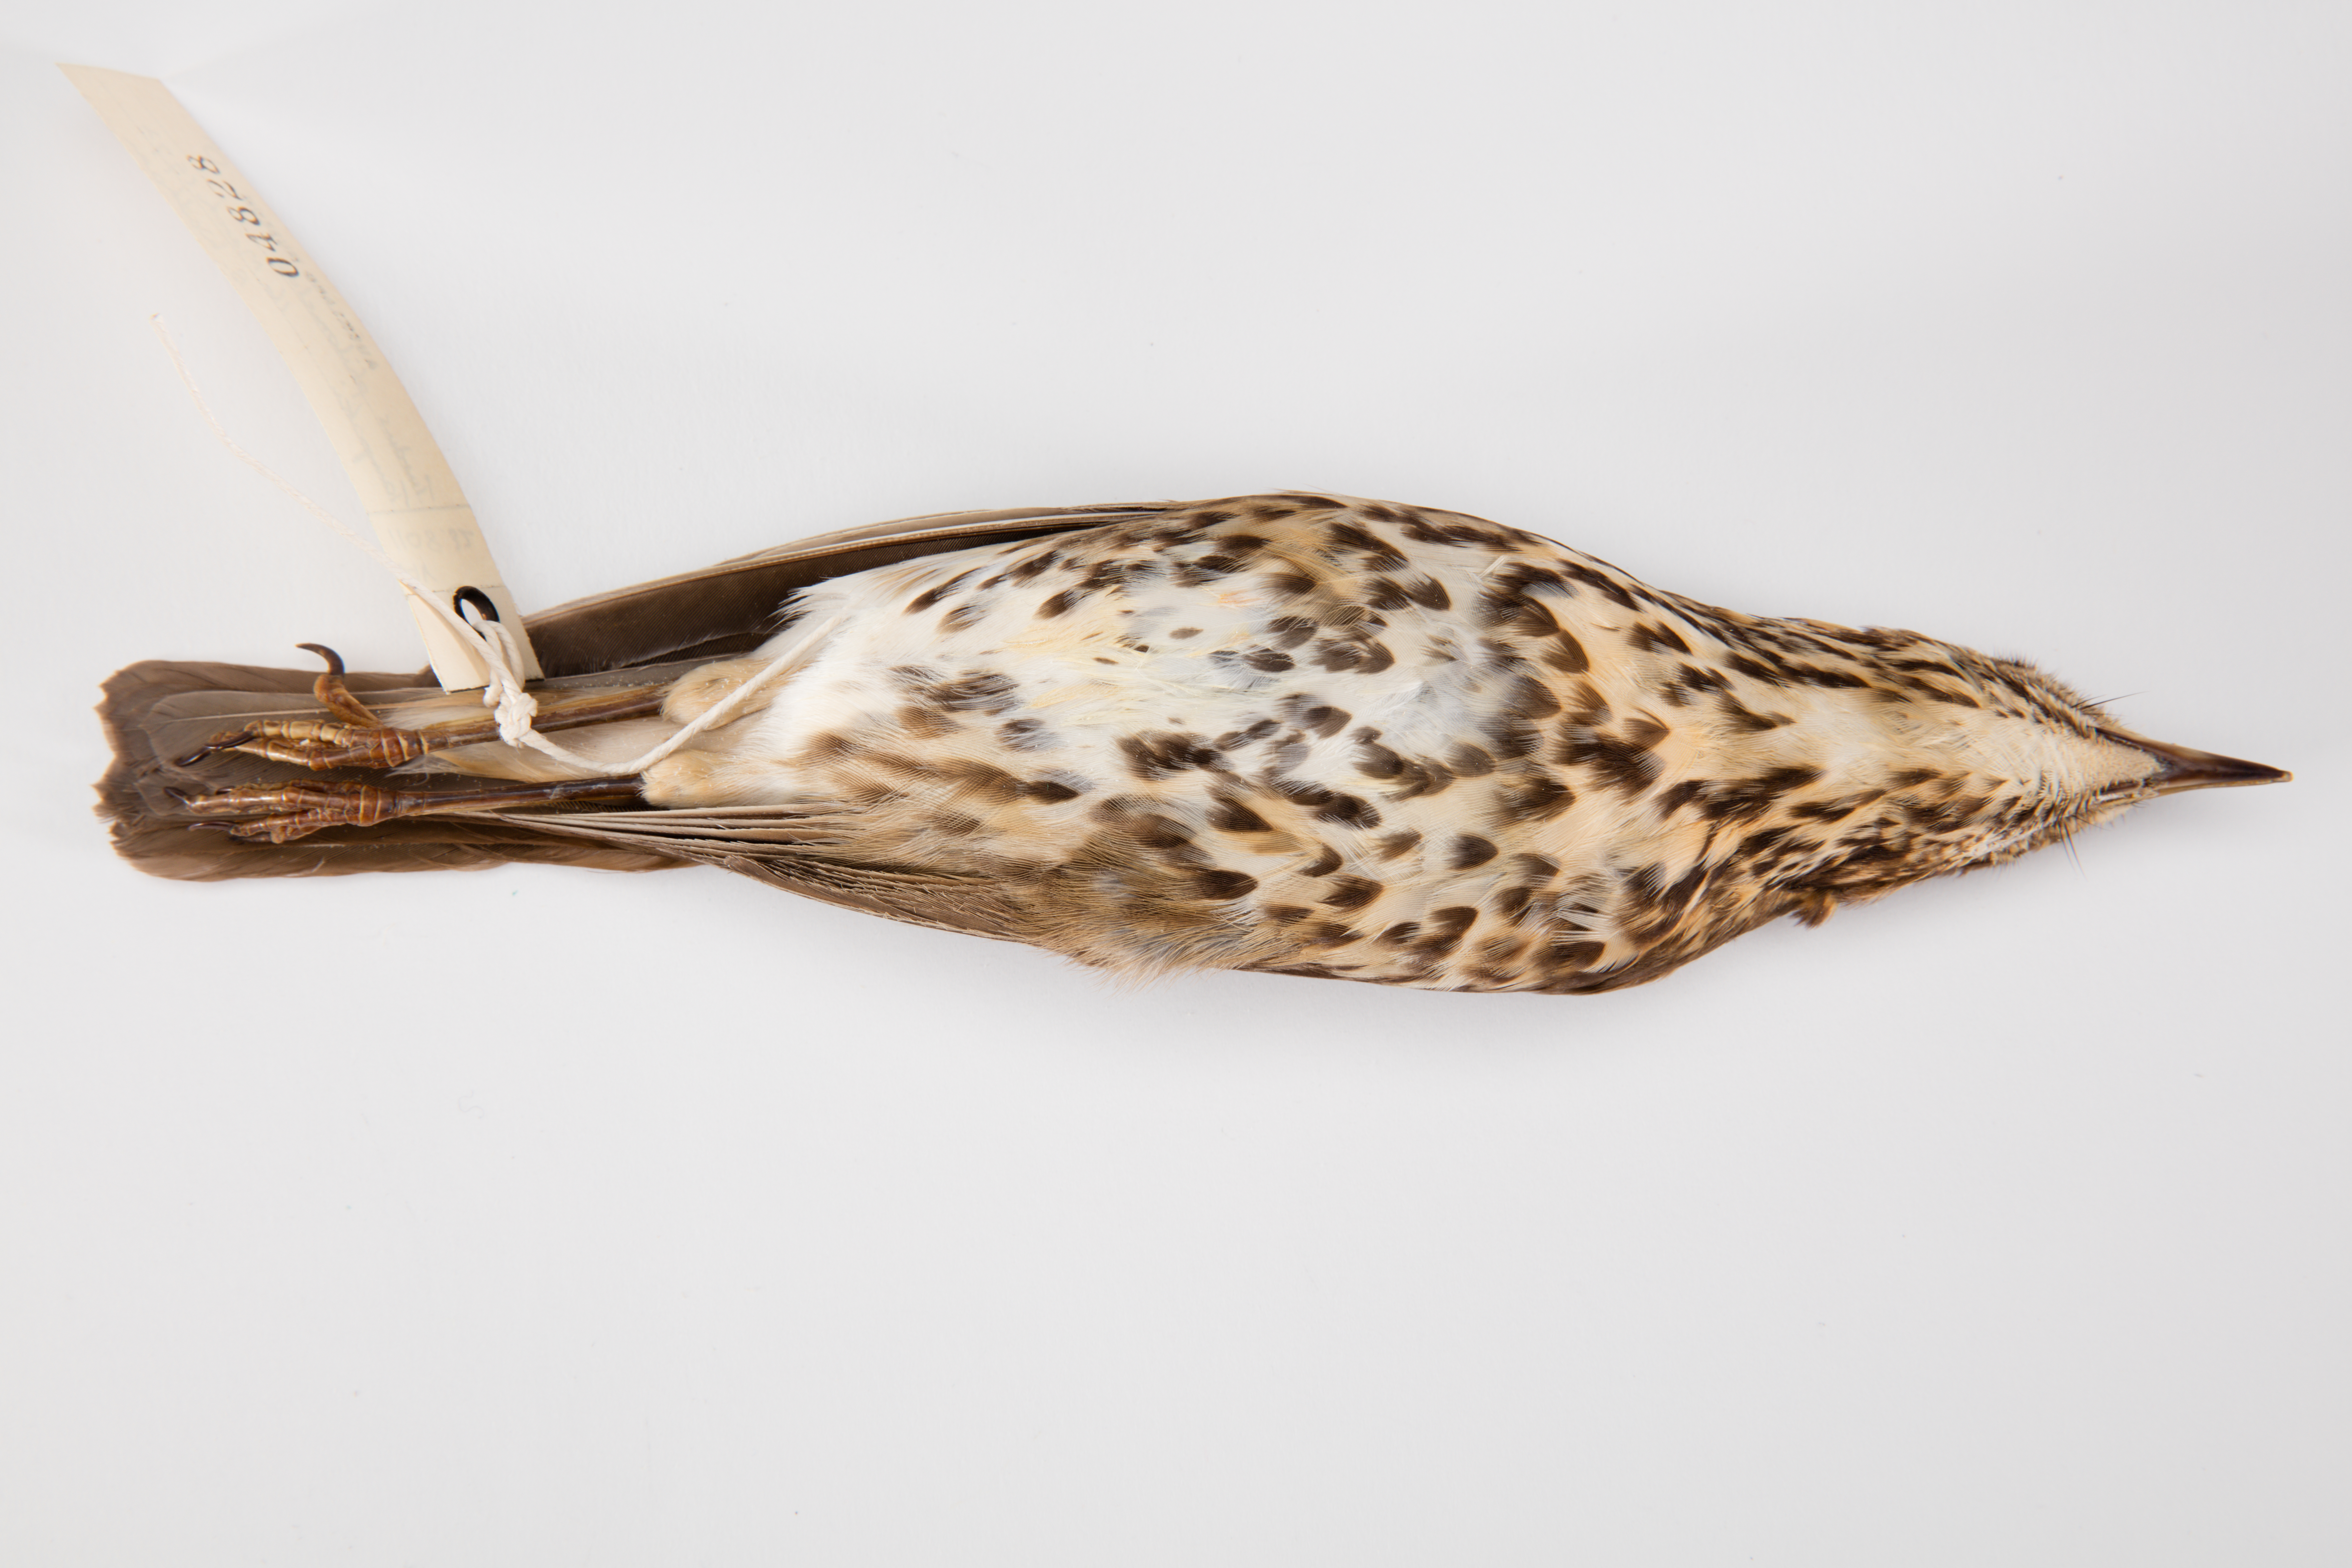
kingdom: Animalia
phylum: Chordata
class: Aves
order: Passeriformes
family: Turdidae
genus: Turdus
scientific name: Turdus philomelos
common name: Song thrush
